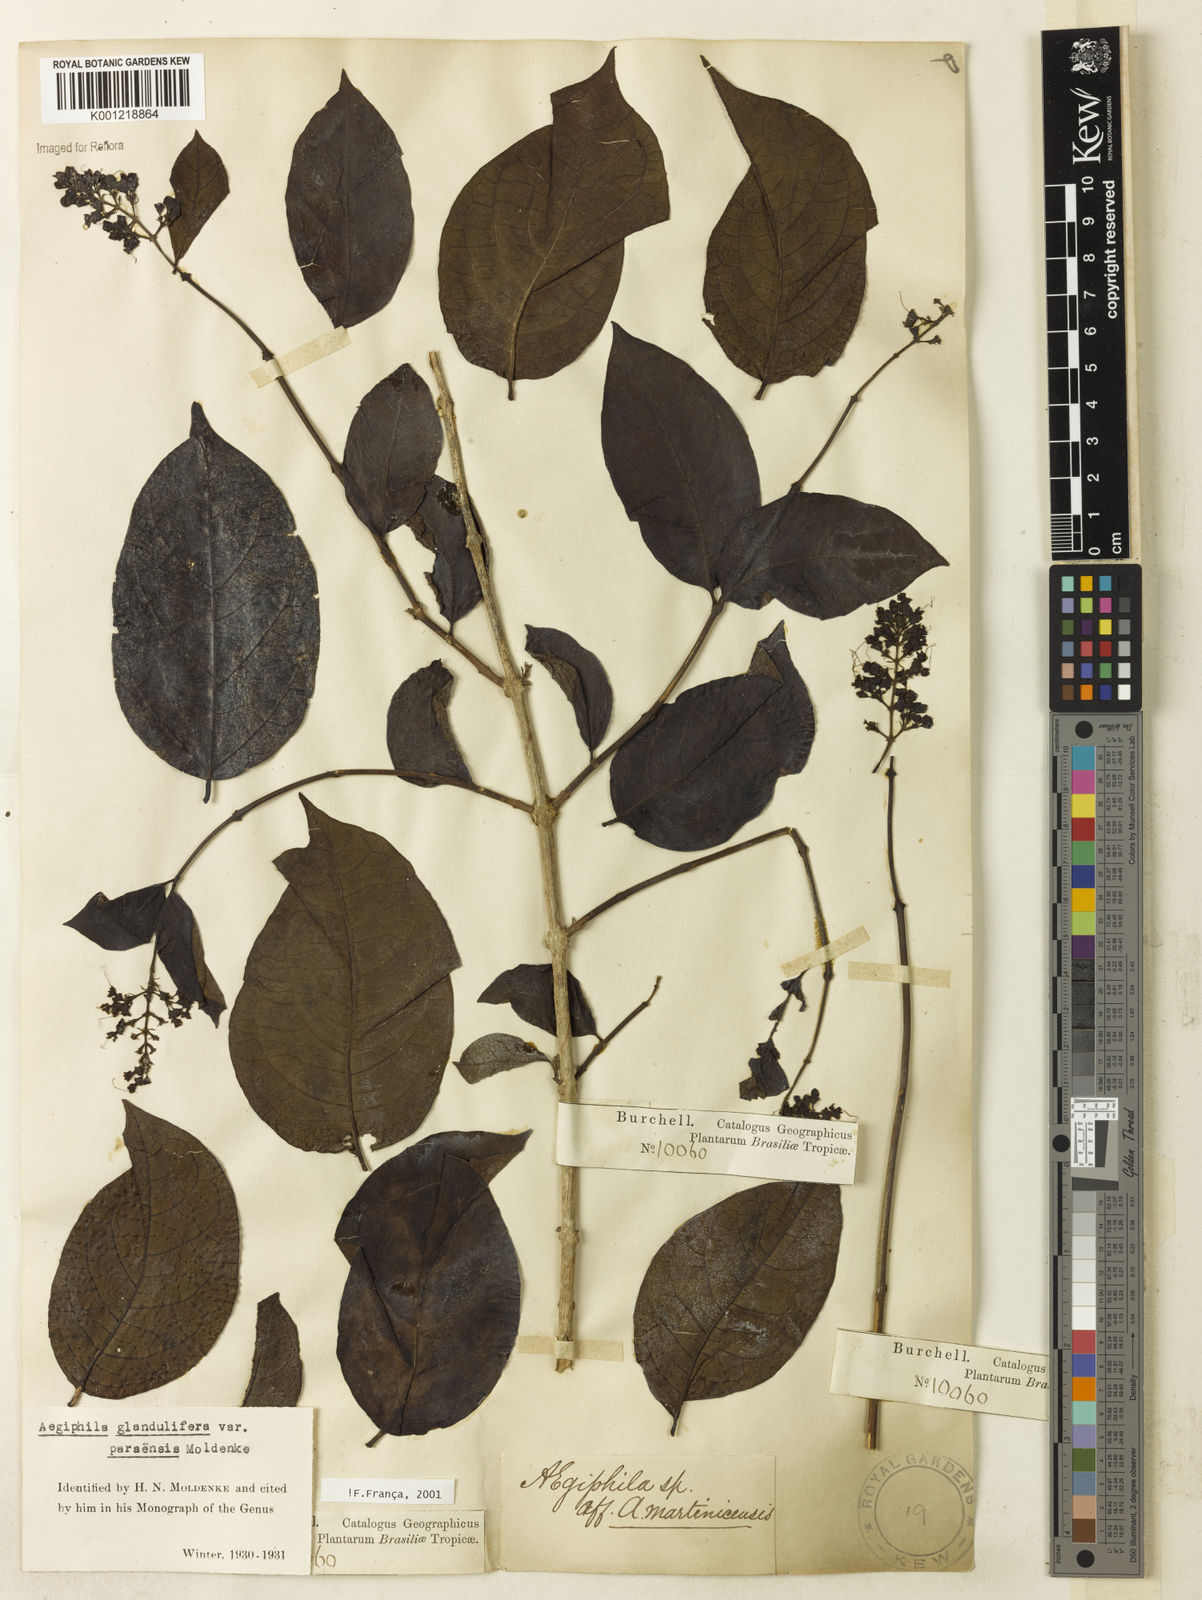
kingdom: Plantae
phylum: Tracheophyta
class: Magnoliopsida
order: Lamiales
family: Lamiaceae
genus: Aegiphila
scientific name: Aegiphila panamensis
